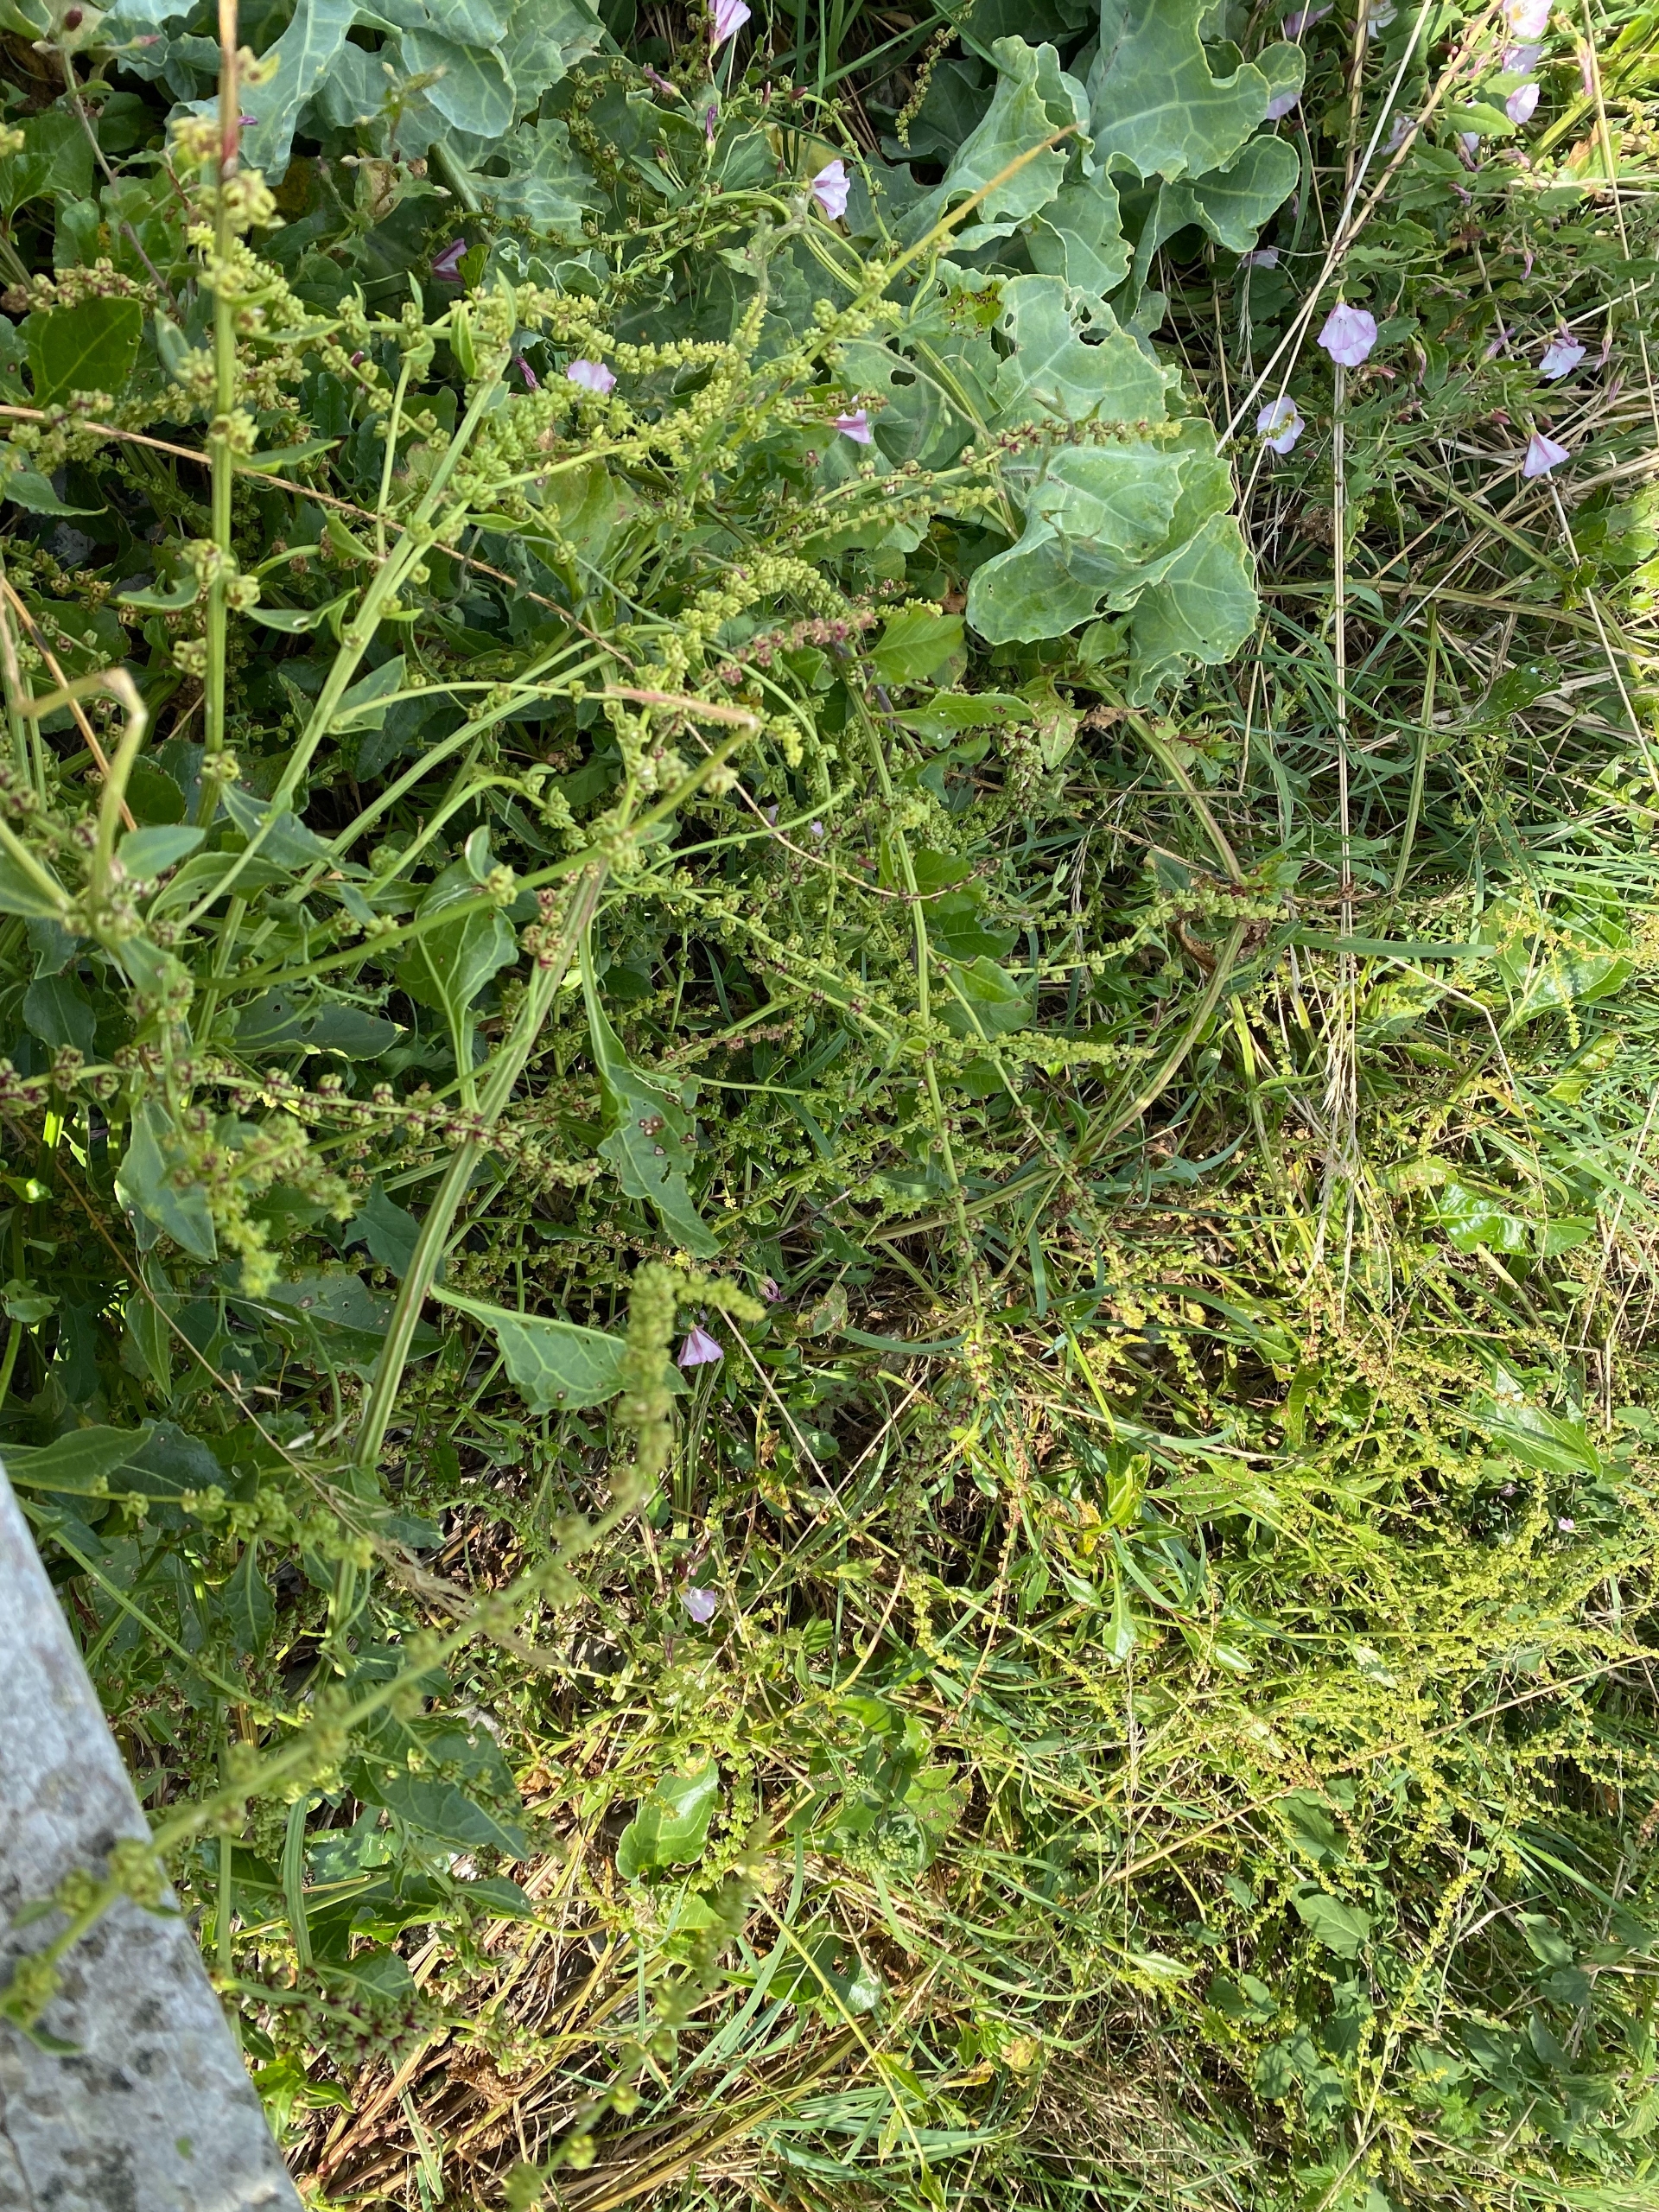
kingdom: Plantae
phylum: Tracheophyta
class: Magnoliopsida
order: Caryophyllales
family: Amaranthaceae
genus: Beta
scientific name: Beta vulgaris
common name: Bede
